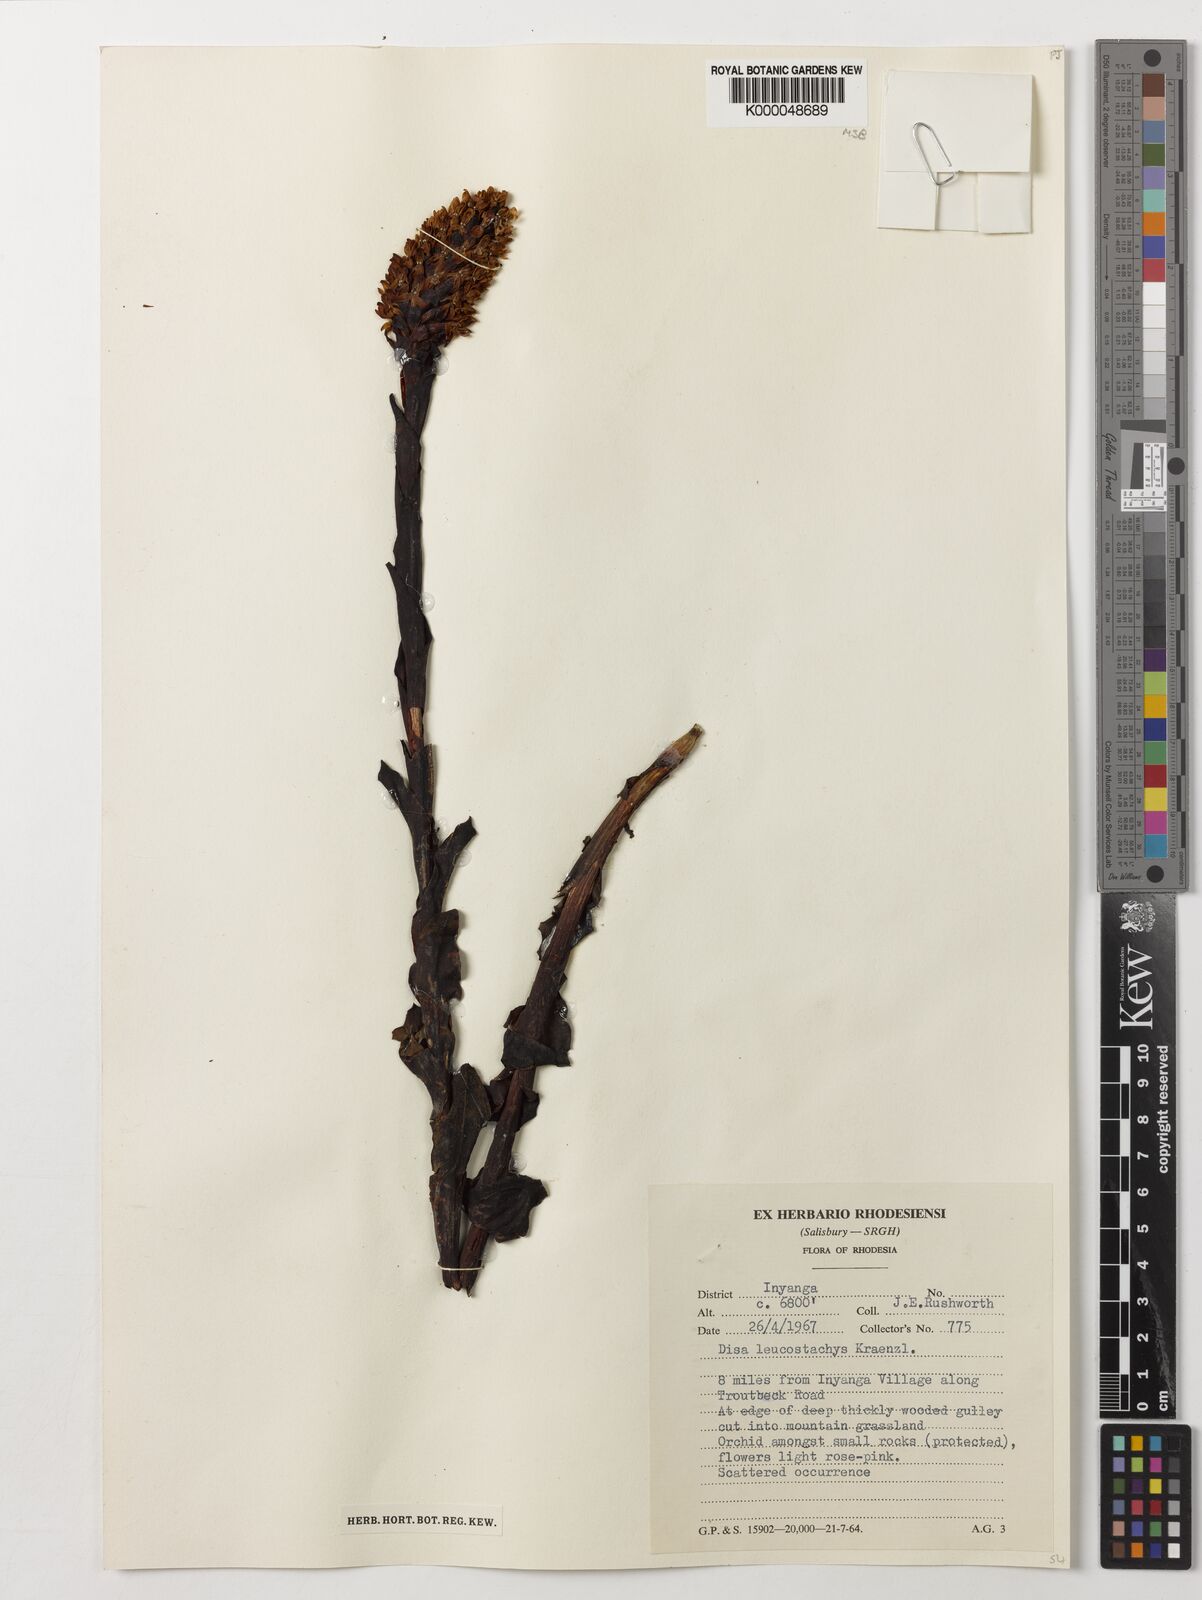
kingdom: Plantae
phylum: Tracheophyta
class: Liliopsida
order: Asparagales
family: Orchidaceae
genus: Disa
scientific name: Disa fragrans
